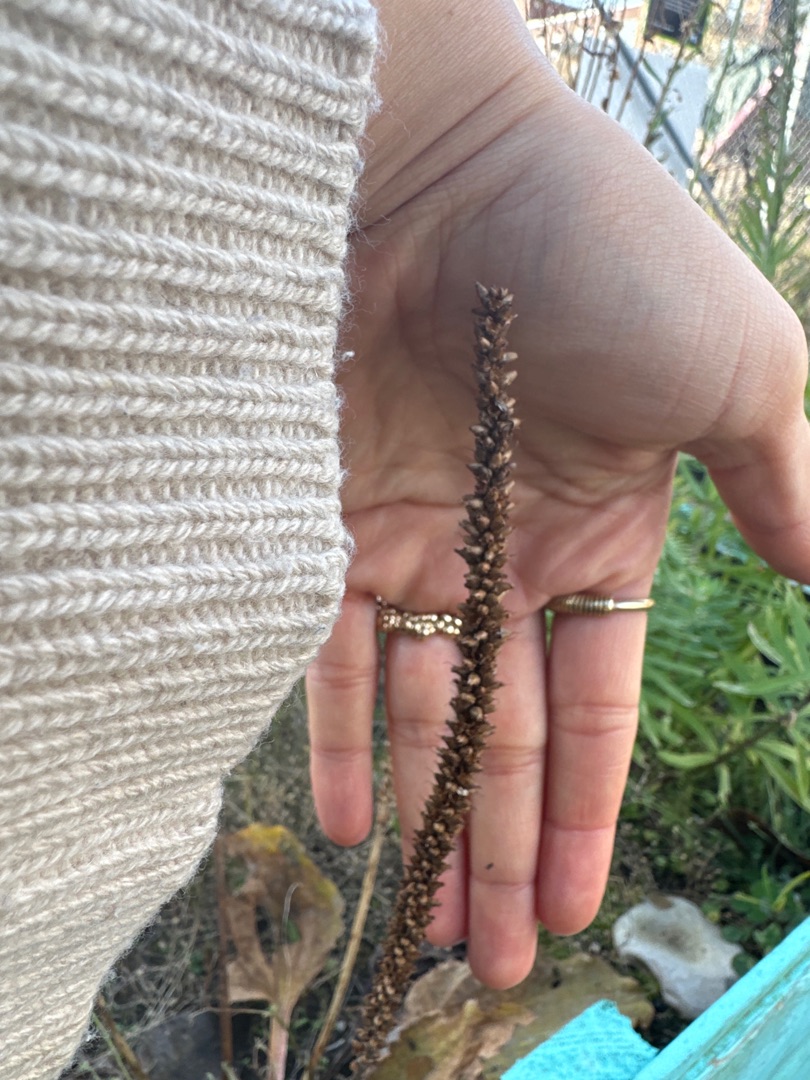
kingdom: Plantae
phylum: Tracheophyta
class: Magnoliopsida
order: Lamiales
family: Plantaginaceae
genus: Plantago
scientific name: Plantago
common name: Vejbredslægten
